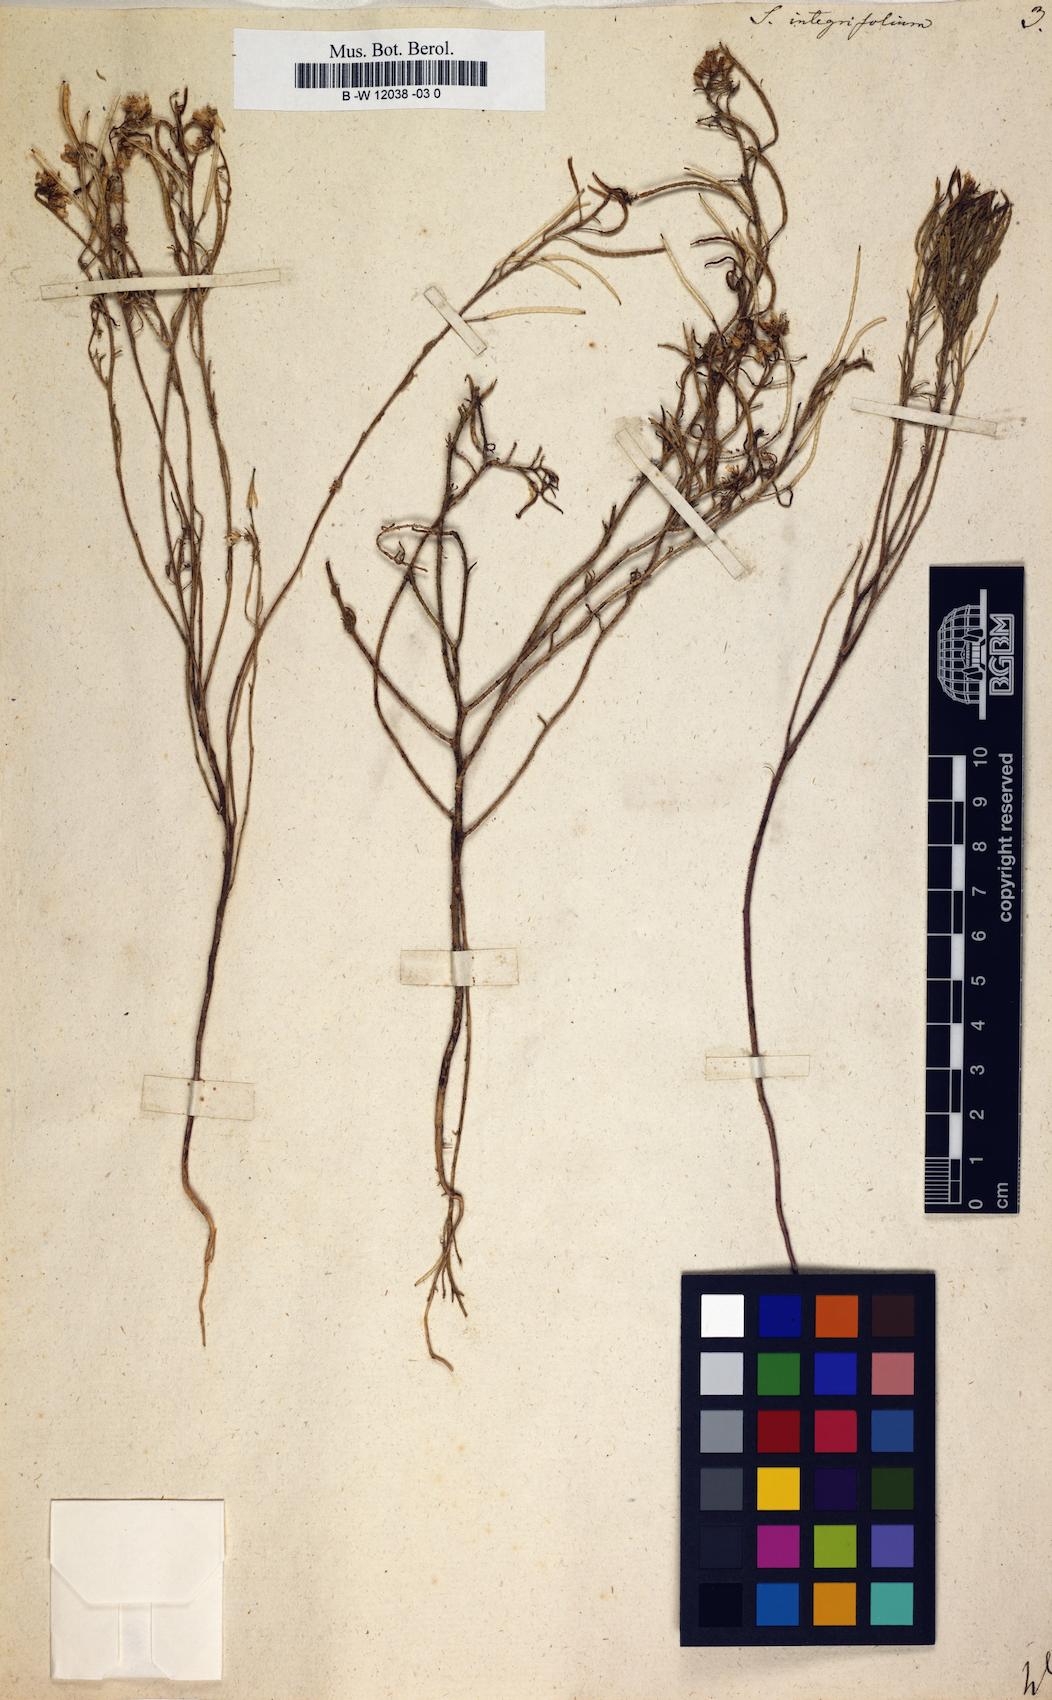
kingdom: Plantae
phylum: Tracheophyta
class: Magnoliopsida
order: Brassicales
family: Brassicaceae
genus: Sisymbrium
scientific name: Sisymbrium integrifolium
